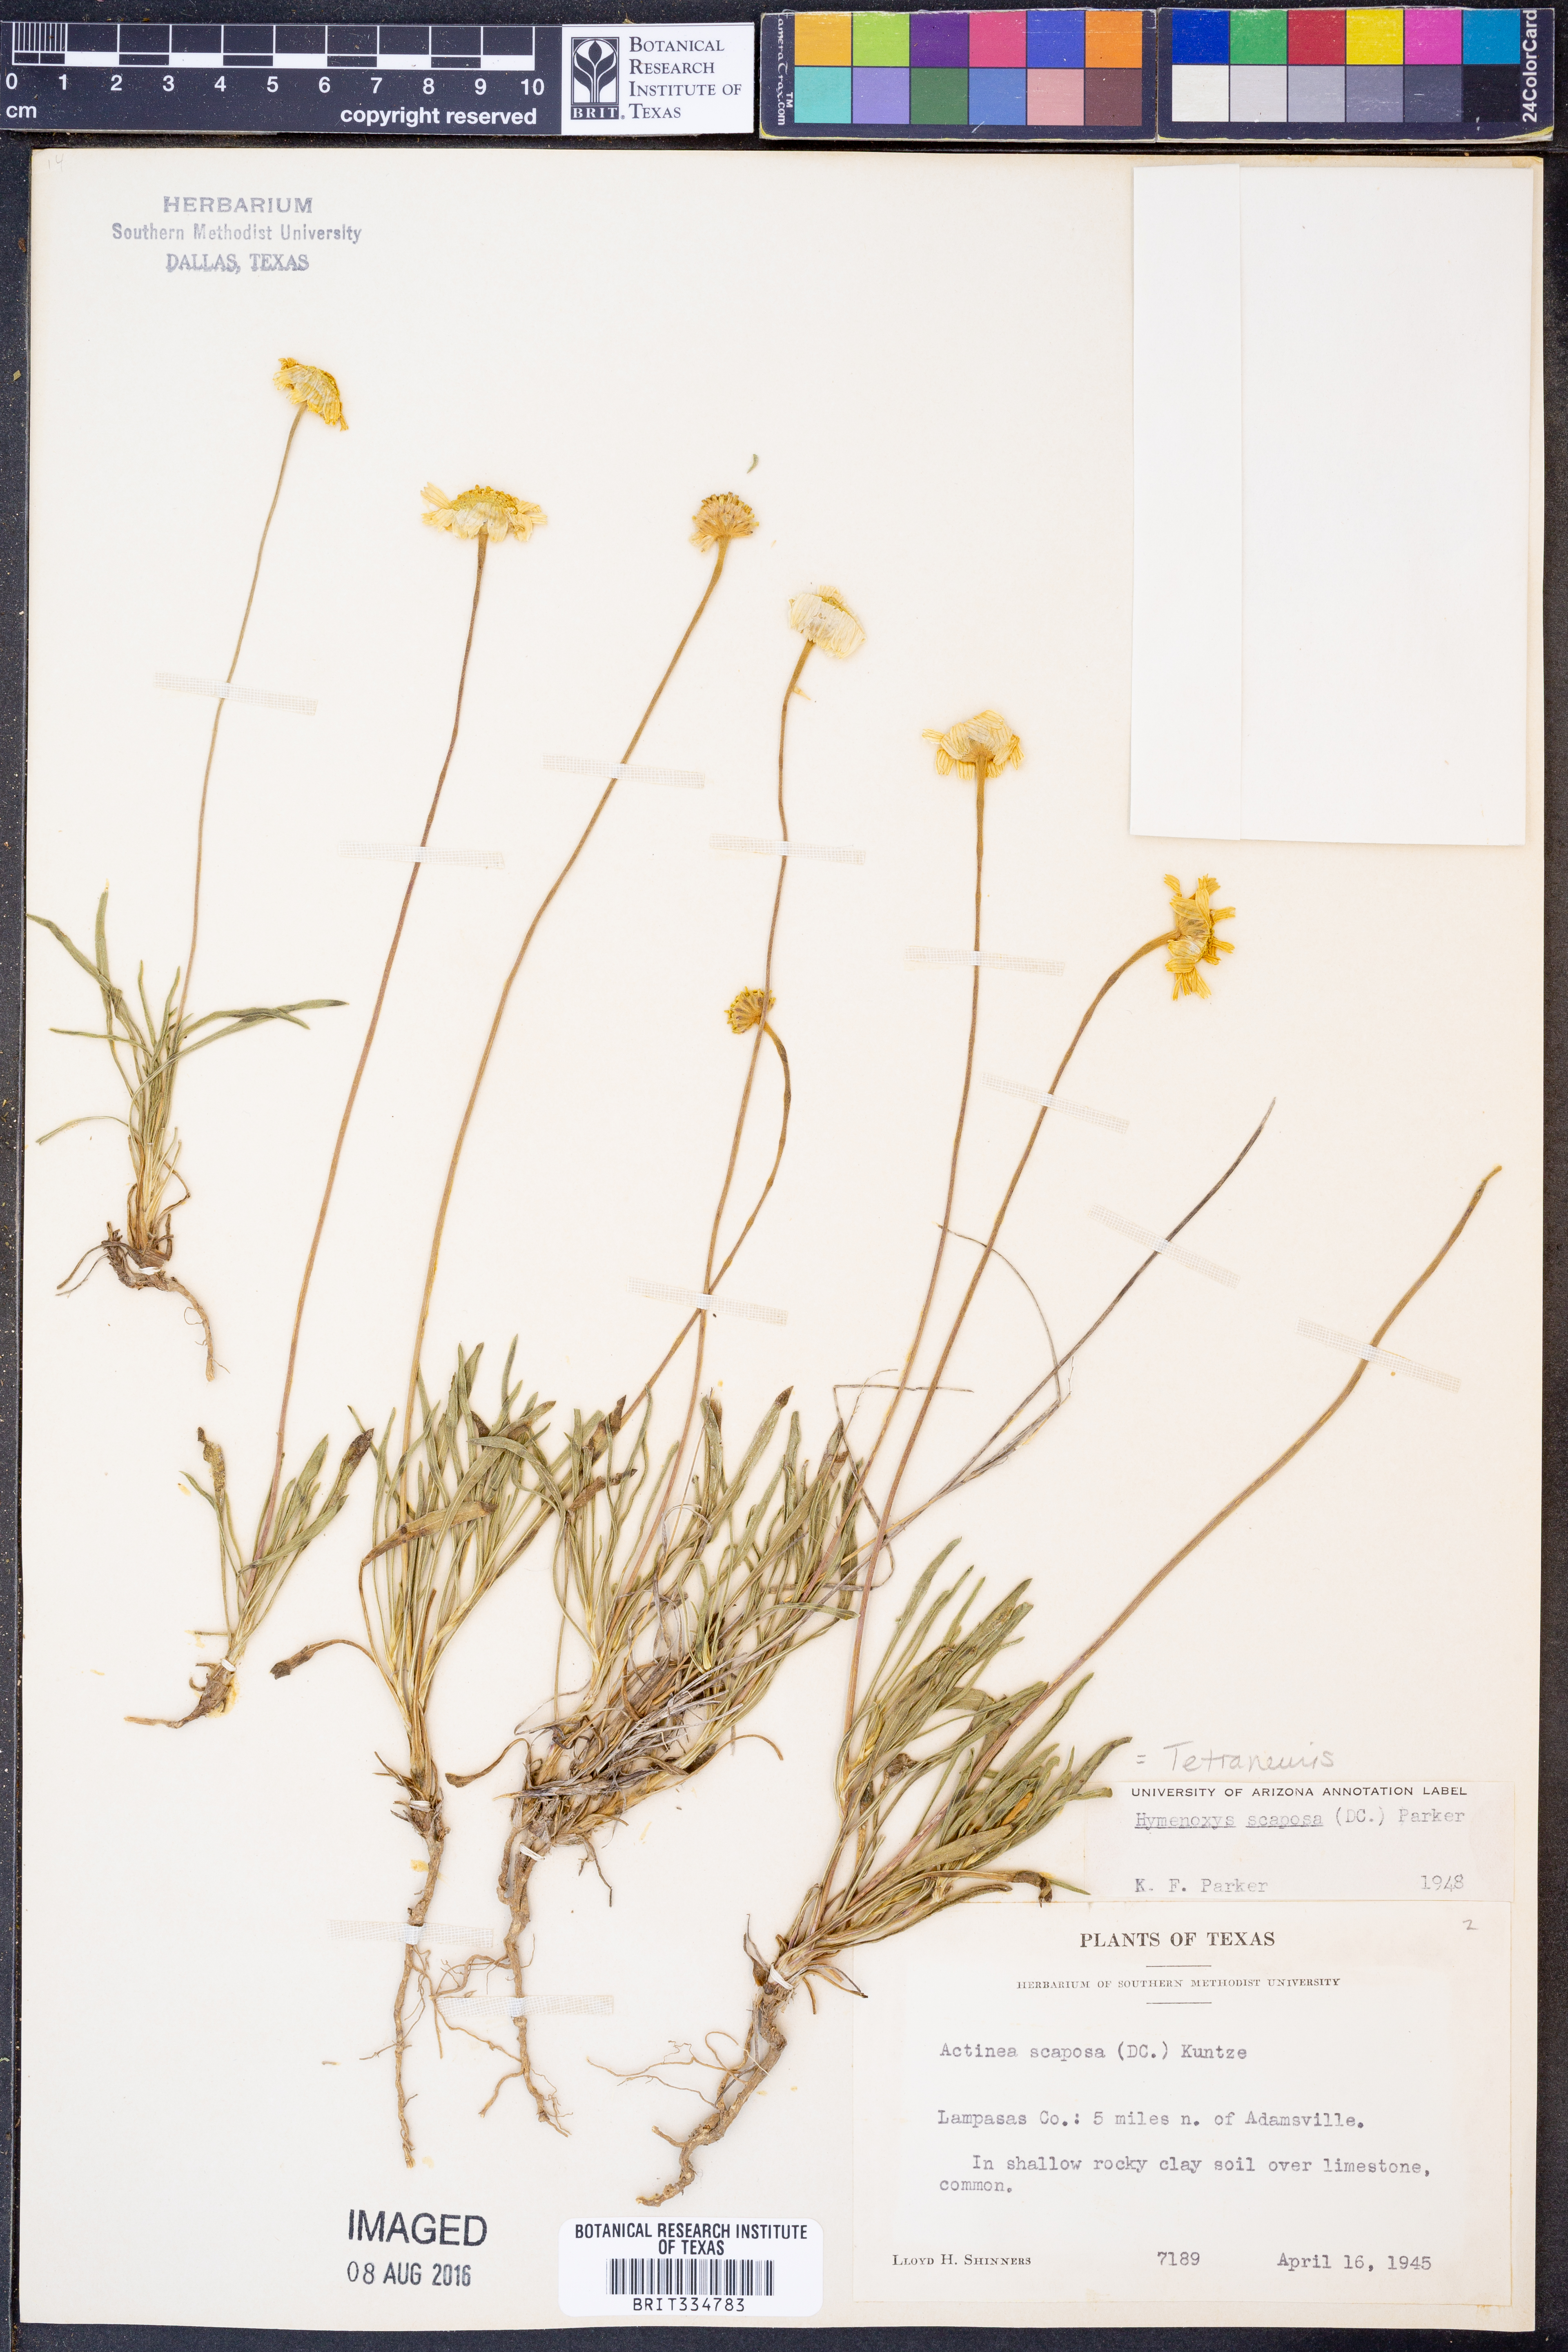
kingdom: Plantae
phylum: Tracheophyta
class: Magnoliopsida
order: Asterales
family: Asteraceae
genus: Tetraneuris
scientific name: Tetraneuris scaposa
